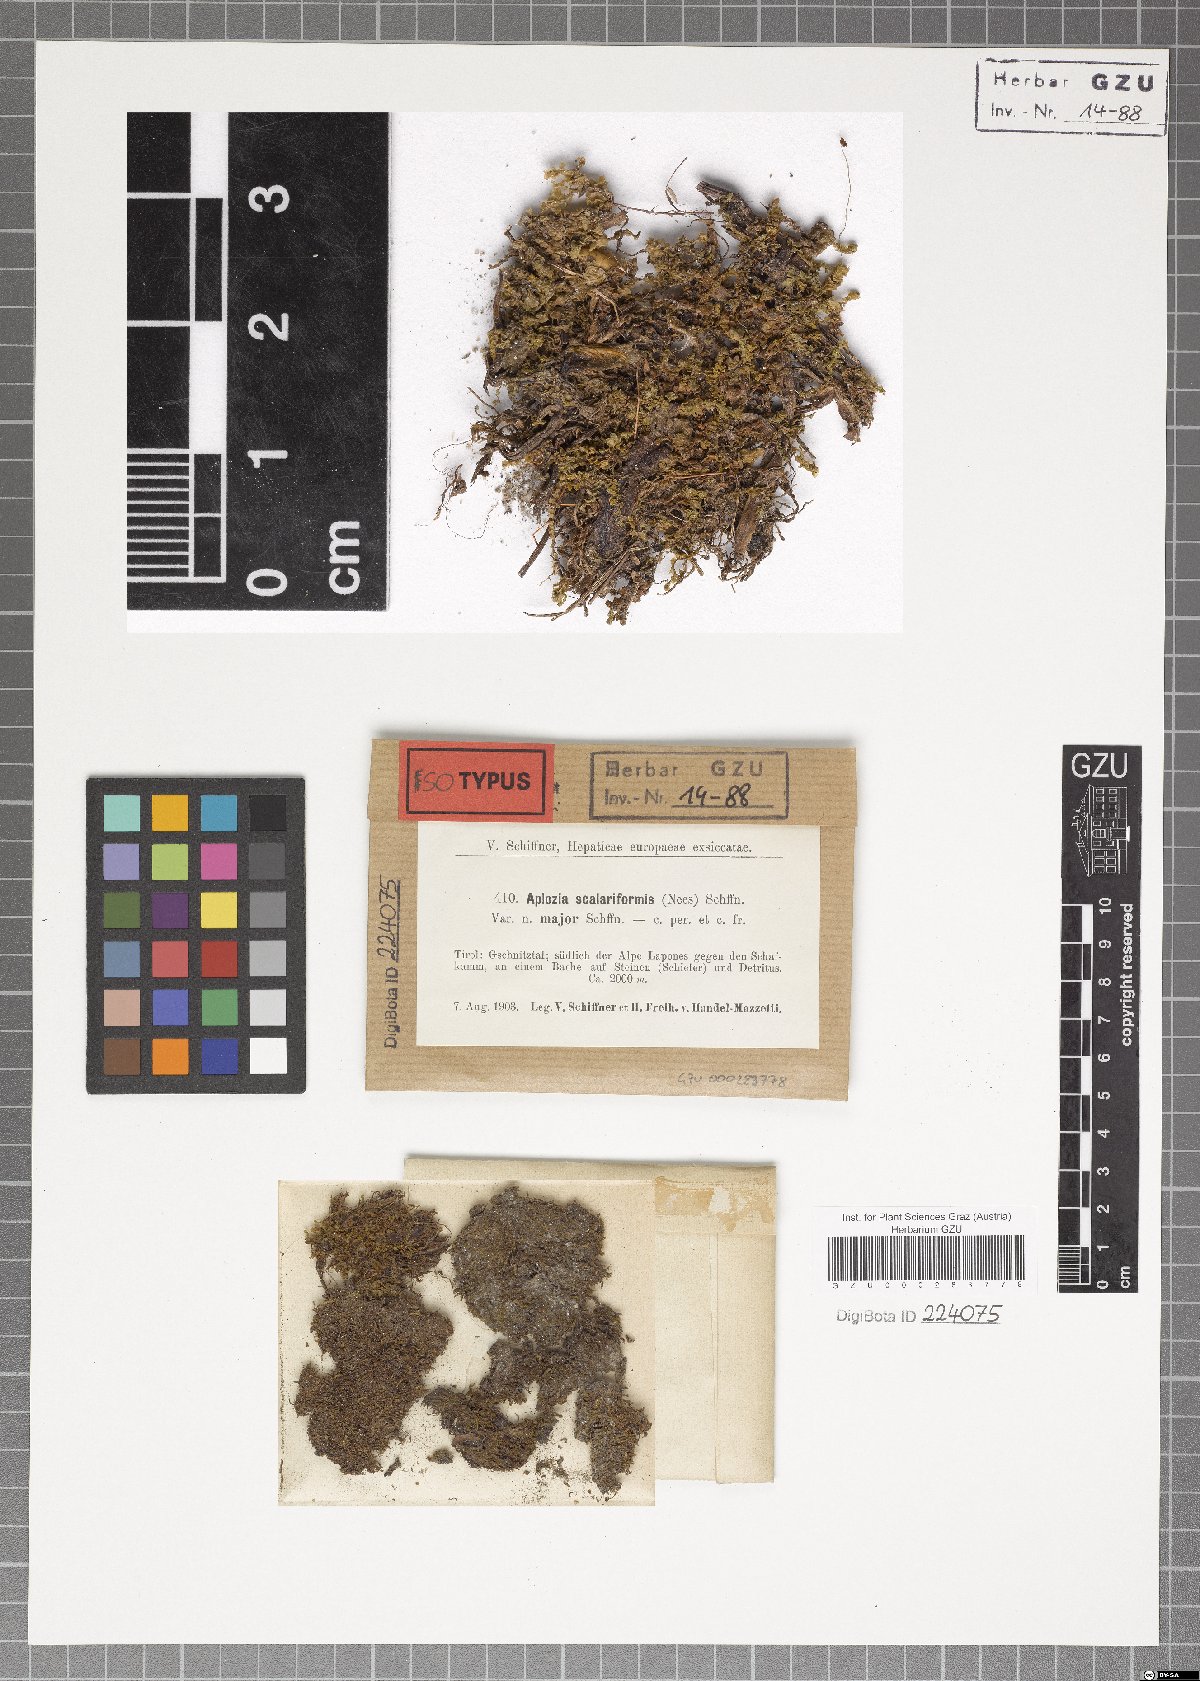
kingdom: Plantae
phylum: Marchantiophyta
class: Jungermanniopsida
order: Jungermanniales
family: Solenostomataceae
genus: Solenostoma
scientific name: Solenostoma confertissimum
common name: Kidney flapwort
